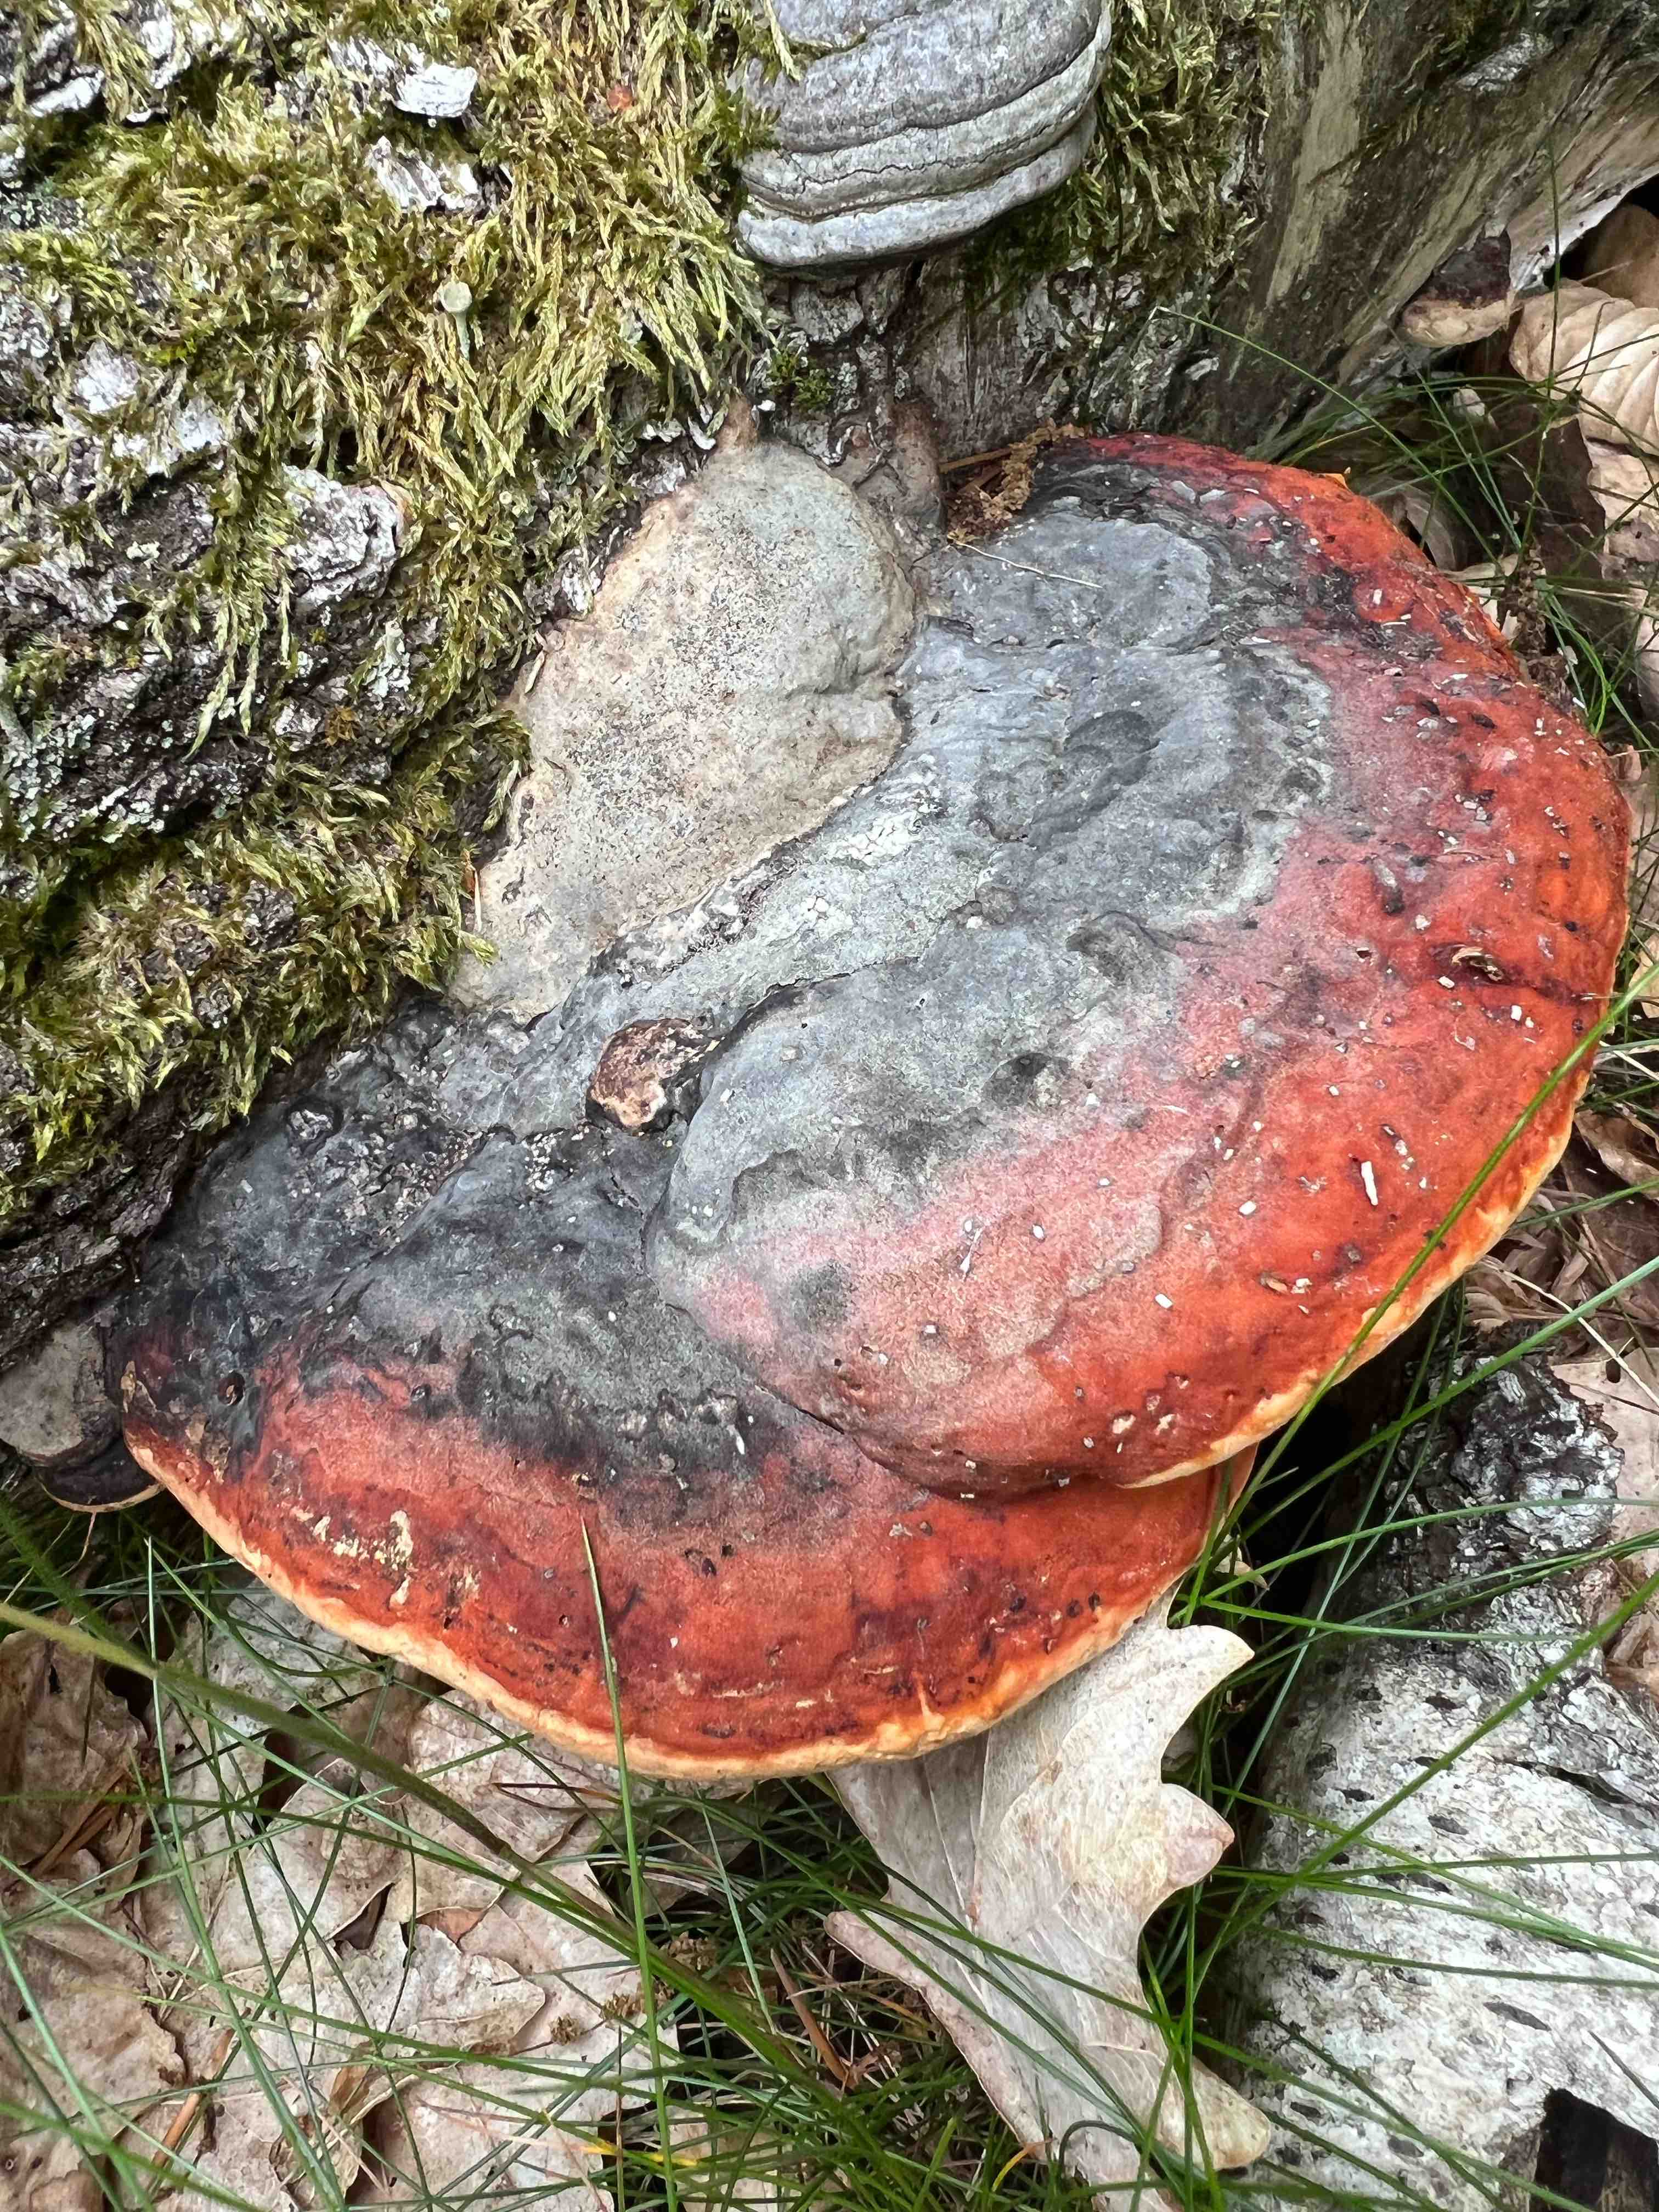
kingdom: Fungi
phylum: Basidiomycota
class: Agaricomycetes
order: Polyporales
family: Fomitopsidaceae
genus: Fomitopsis
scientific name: Fomitopsis pinicola
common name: randbæltet hovporesvamp
